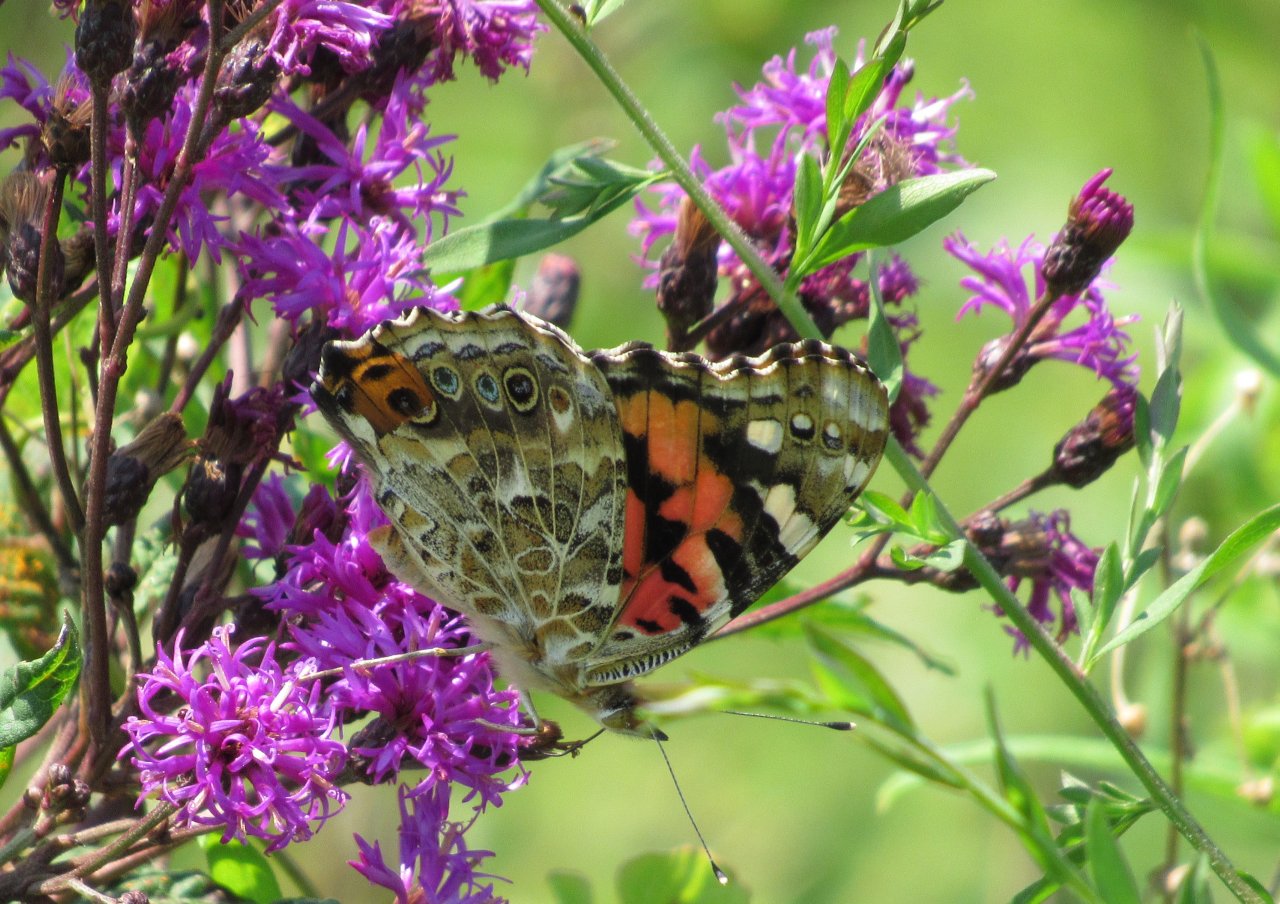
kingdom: Animalia
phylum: Arthropoda
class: Insecta
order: Lepidoptera
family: Nymphalidae
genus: Vanessa
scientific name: Vanessa cardui
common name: Painted Lady
